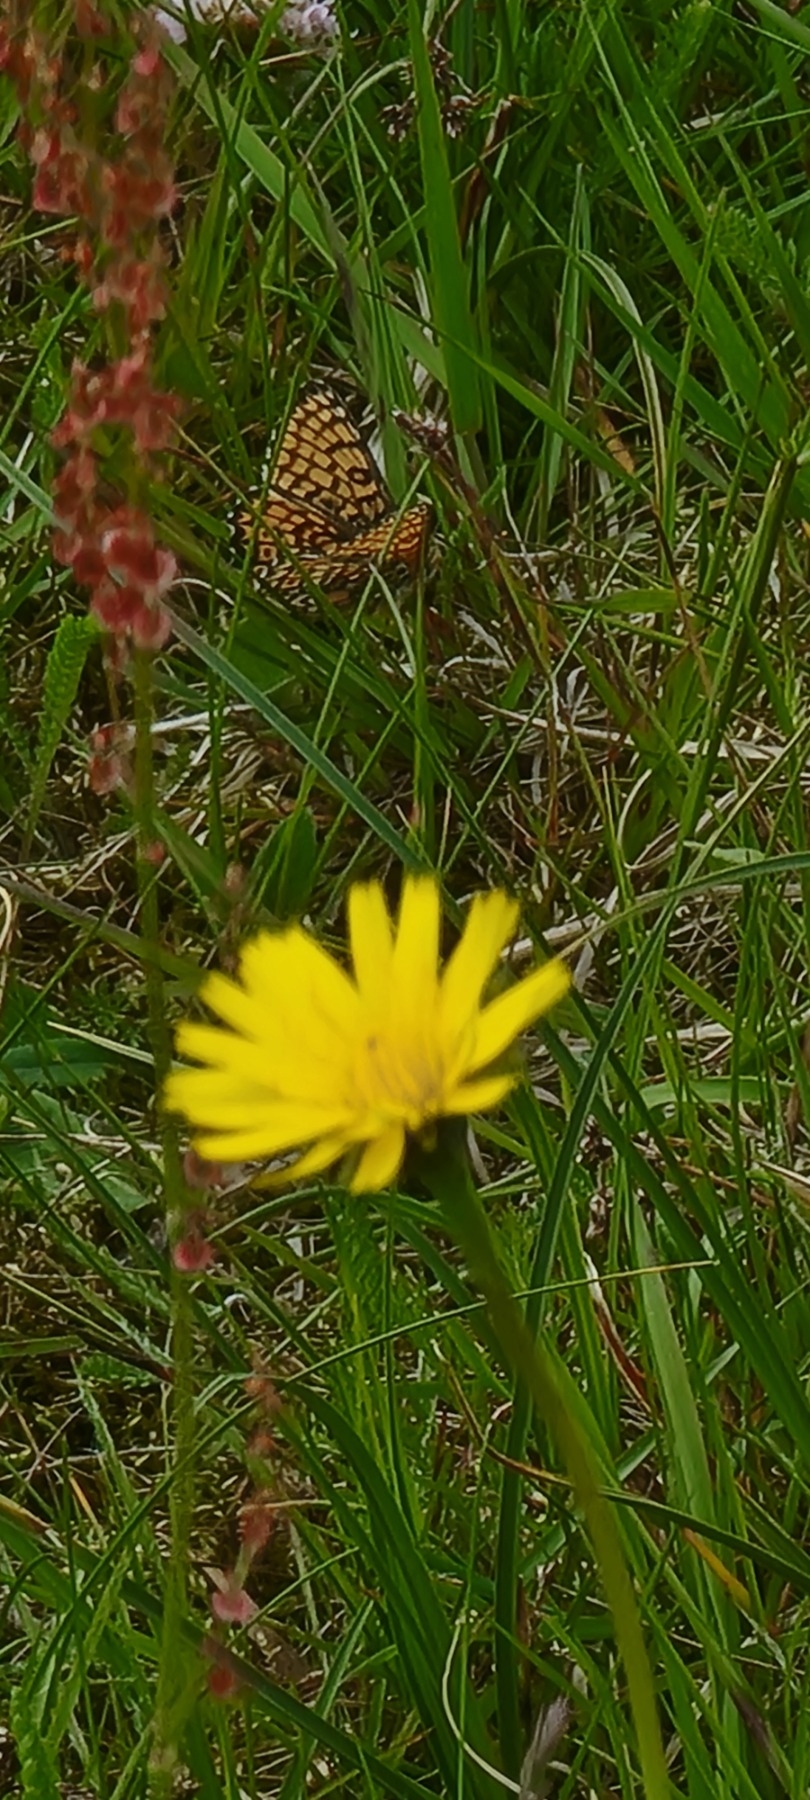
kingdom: Animalia
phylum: Arthropoda
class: Insecta
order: Lepidoptera
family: Nymphalidae
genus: Melitaea
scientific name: Melitaea cinxia
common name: Okkergul pletvinge
